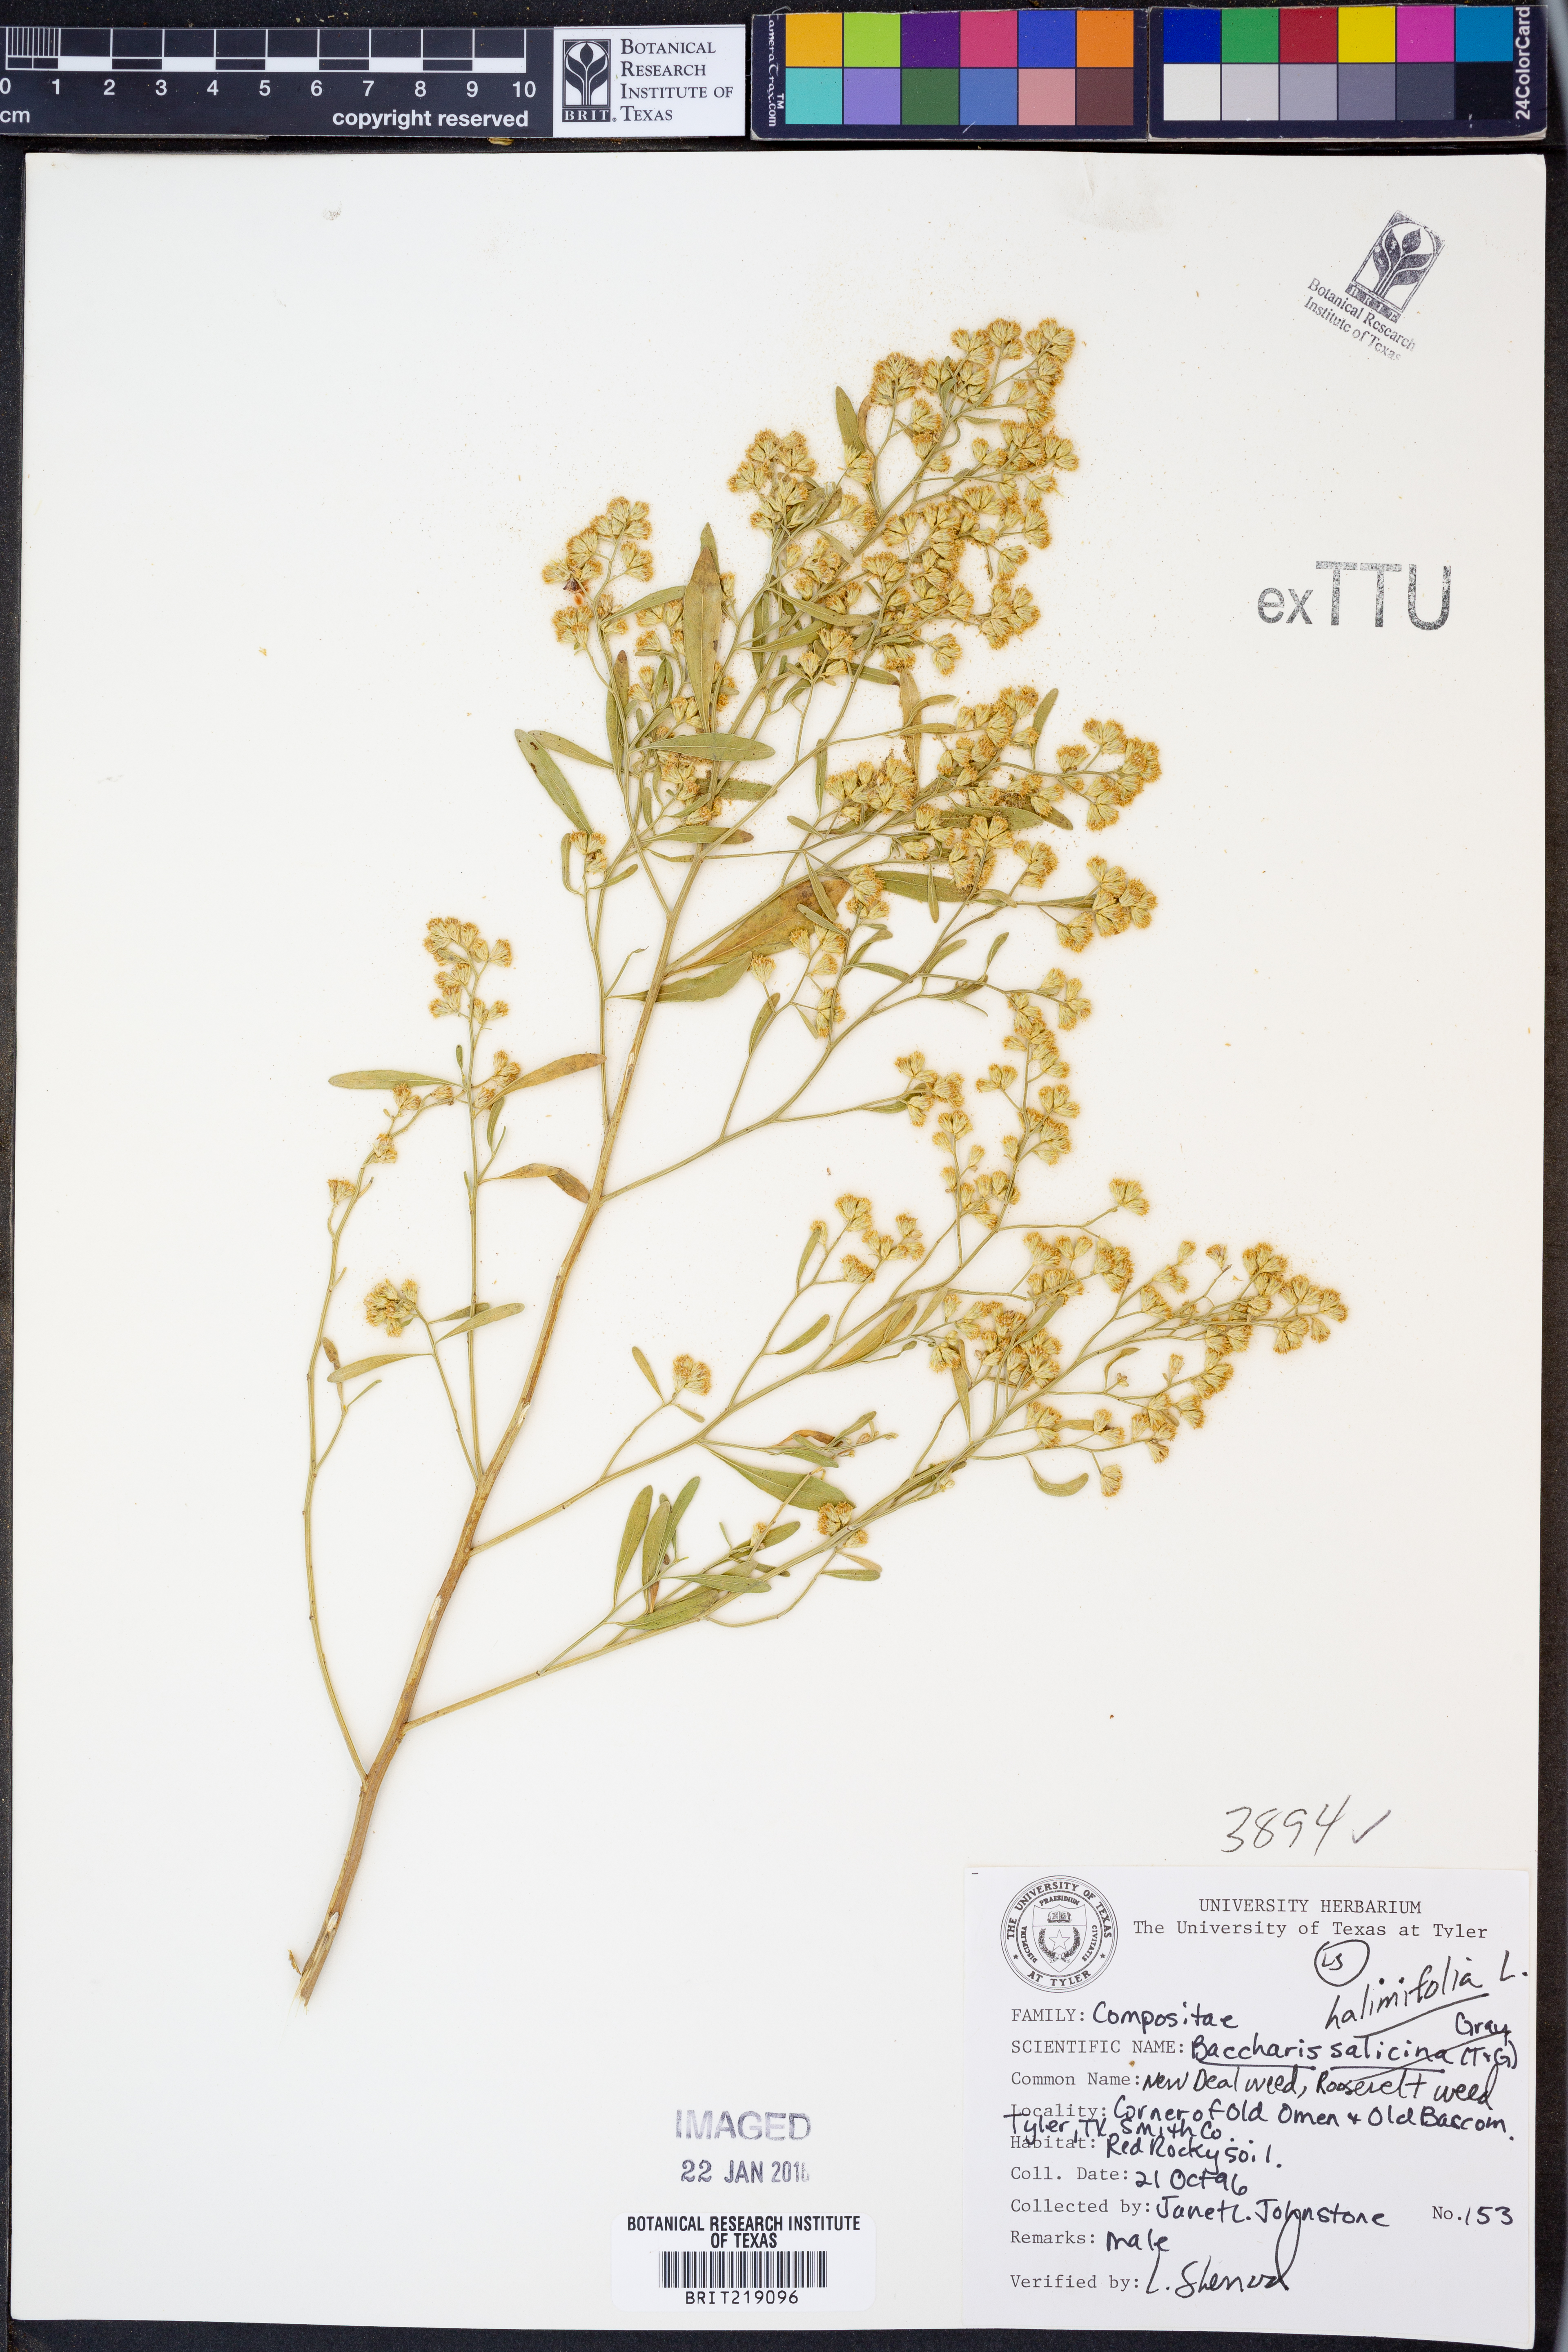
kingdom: Plantae
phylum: Tracheophyta
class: Magnoliopsida
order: Asterales
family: Asteraceae
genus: Nidorella
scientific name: Nidorella ivifolia
